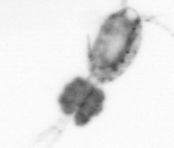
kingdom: Animalia
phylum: Arthropoda
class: Copepoda
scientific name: Copepoda
